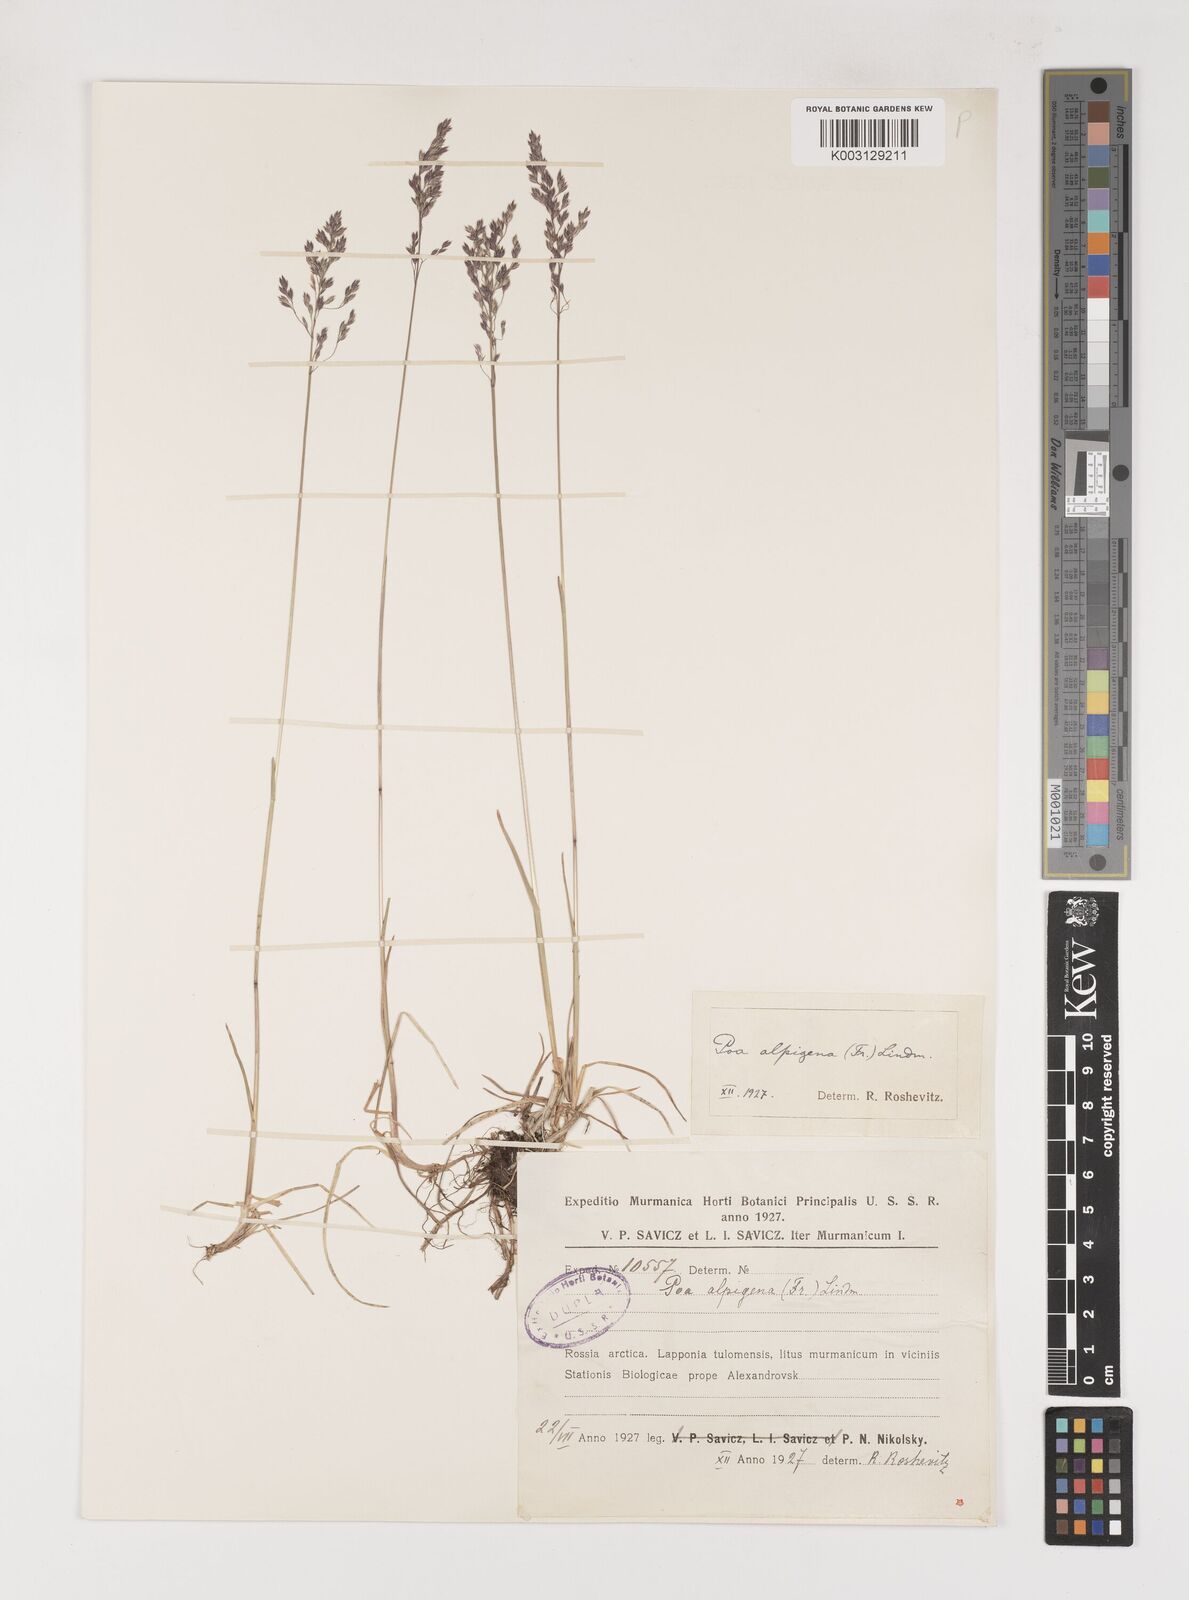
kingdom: Plantae
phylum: Tracheophyta
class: Liliopsida
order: Poales
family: Poaceae
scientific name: Poaceae
